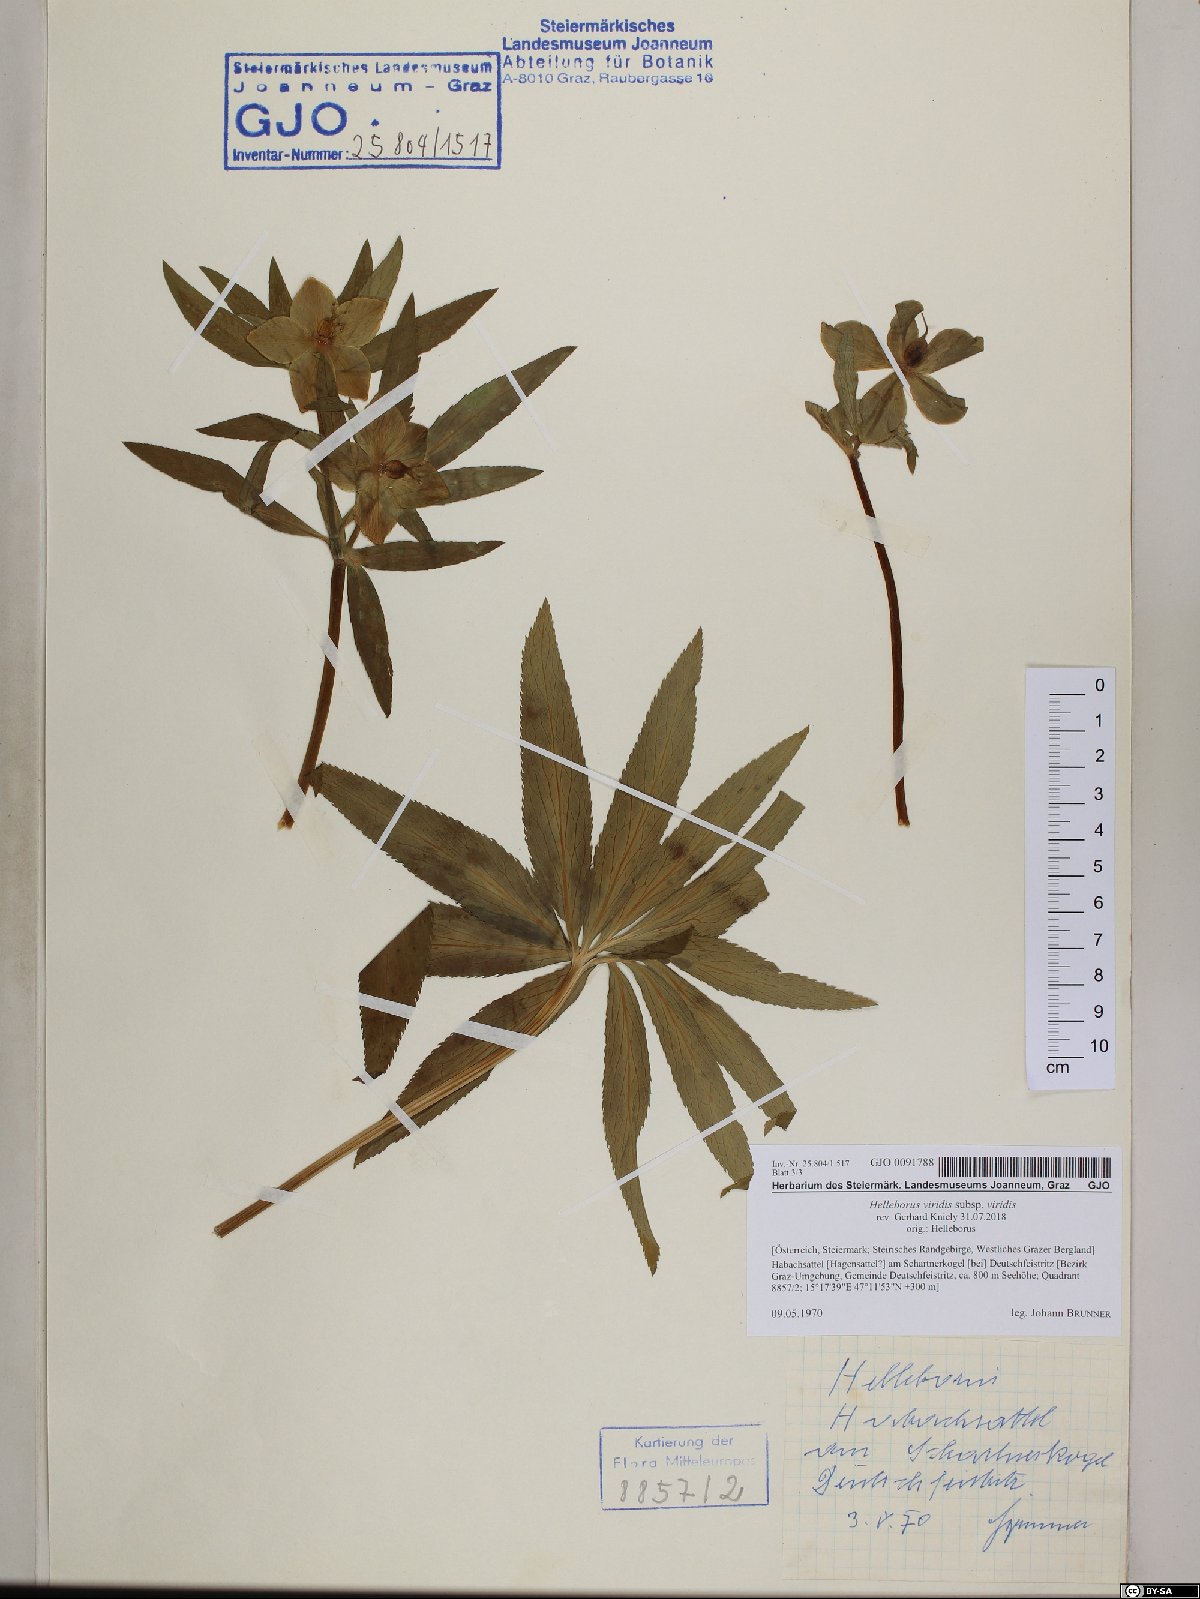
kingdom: Plantae
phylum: Tracheophyta
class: Magnoliopsida
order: Ranunculales
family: Ranunculaceae
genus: Helleborus
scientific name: Helleborus viridis
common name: Green hellebore
